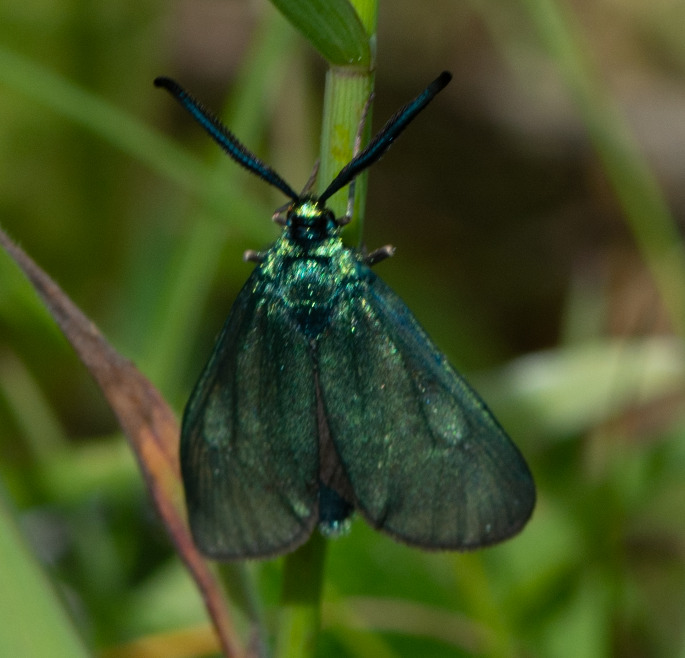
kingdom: Animalia
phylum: Arthropoda
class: Insecta
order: Lepidoptera
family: Zygaenidae
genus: Adscita
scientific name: Adscita statices
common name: Metalvinge
